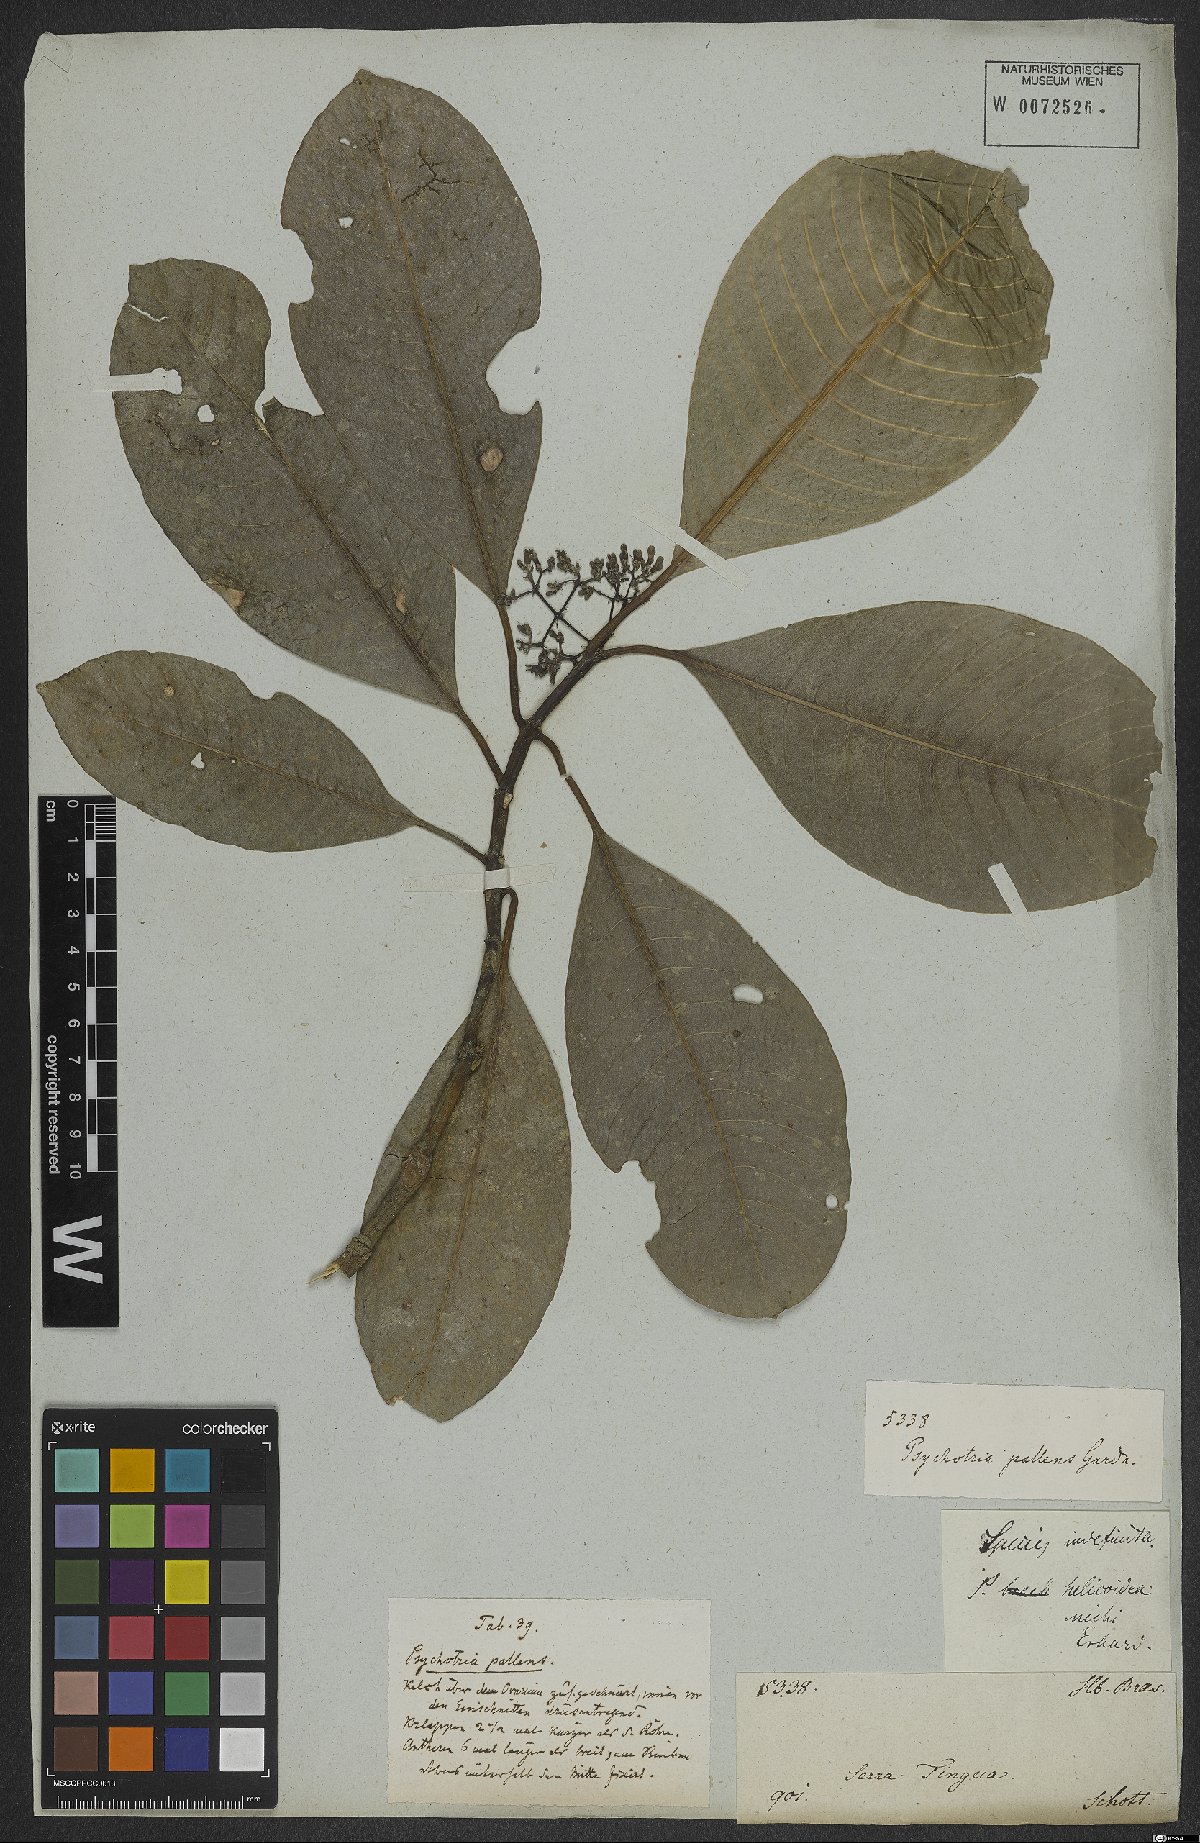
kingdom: Plantae
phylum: Tracheophyta
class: Magnoliopsida
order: Gentianales
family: Rubiaceae
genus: Psychotria
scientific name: Psychotria pallens
